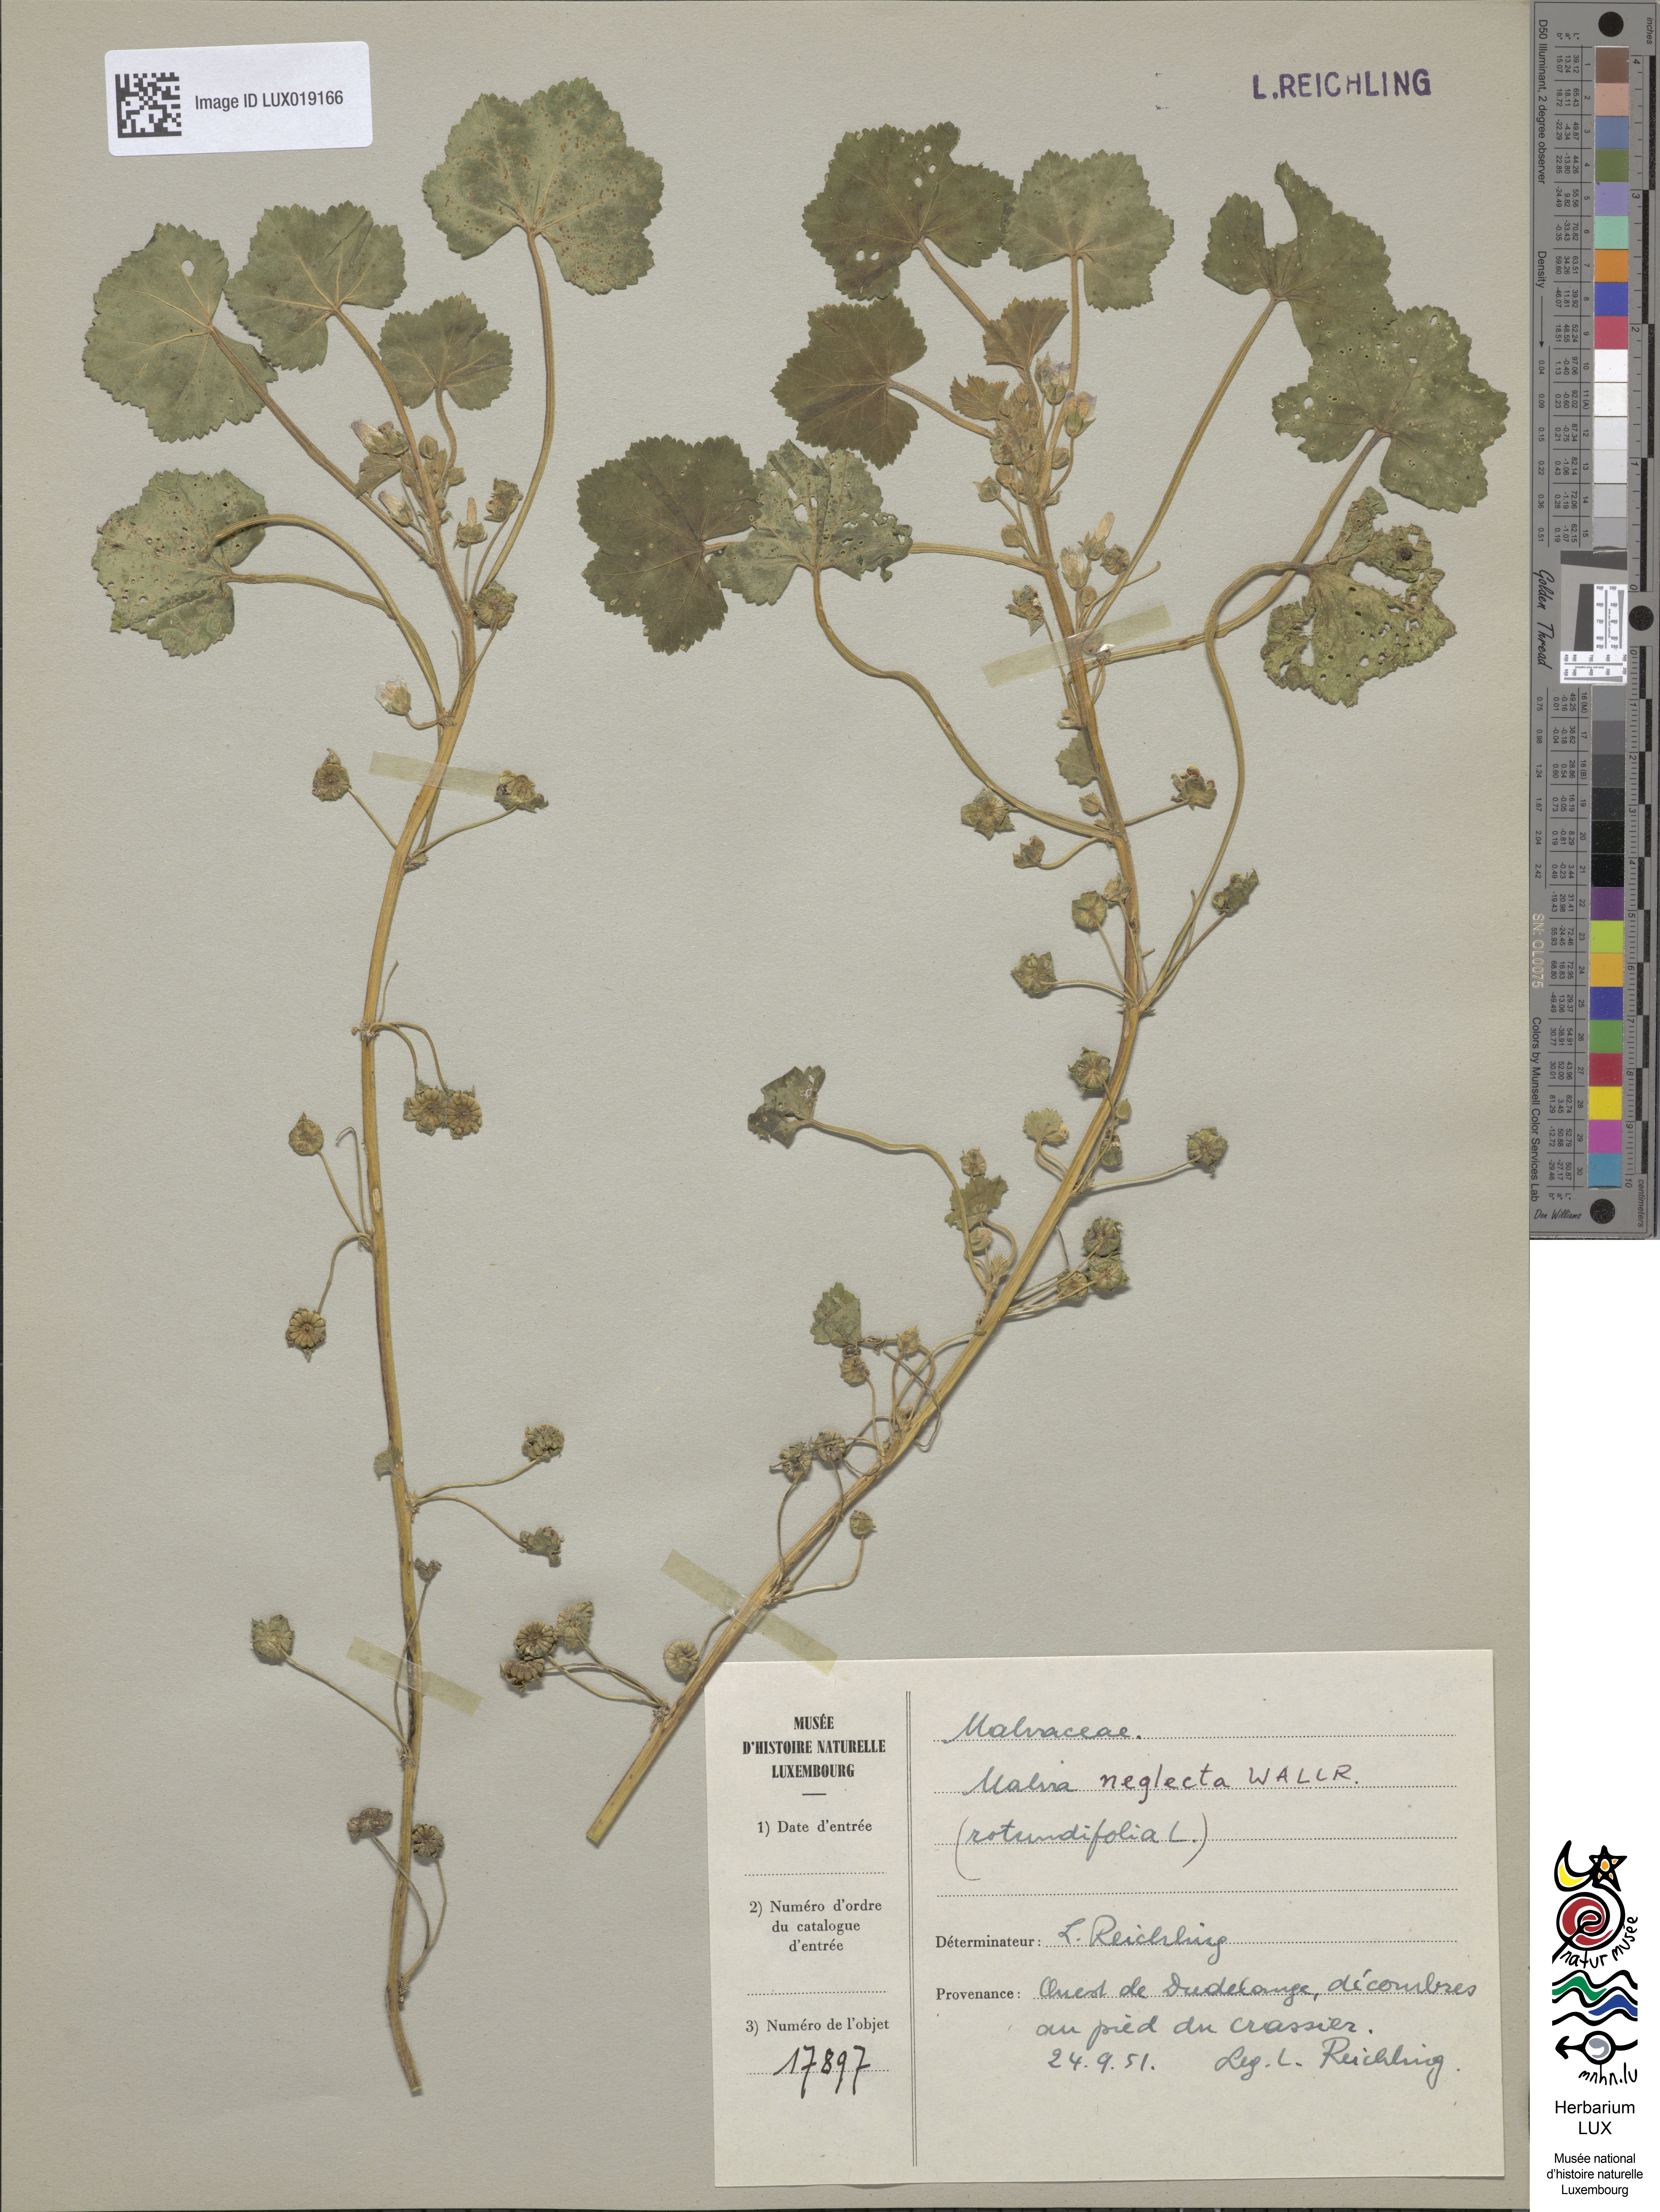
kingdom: Plantae
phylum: Tracheophyta
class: Magnoliopsida
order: Malvales
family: Malvaceae
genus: Malva
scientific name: Malva neglecta
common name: Common mallow
